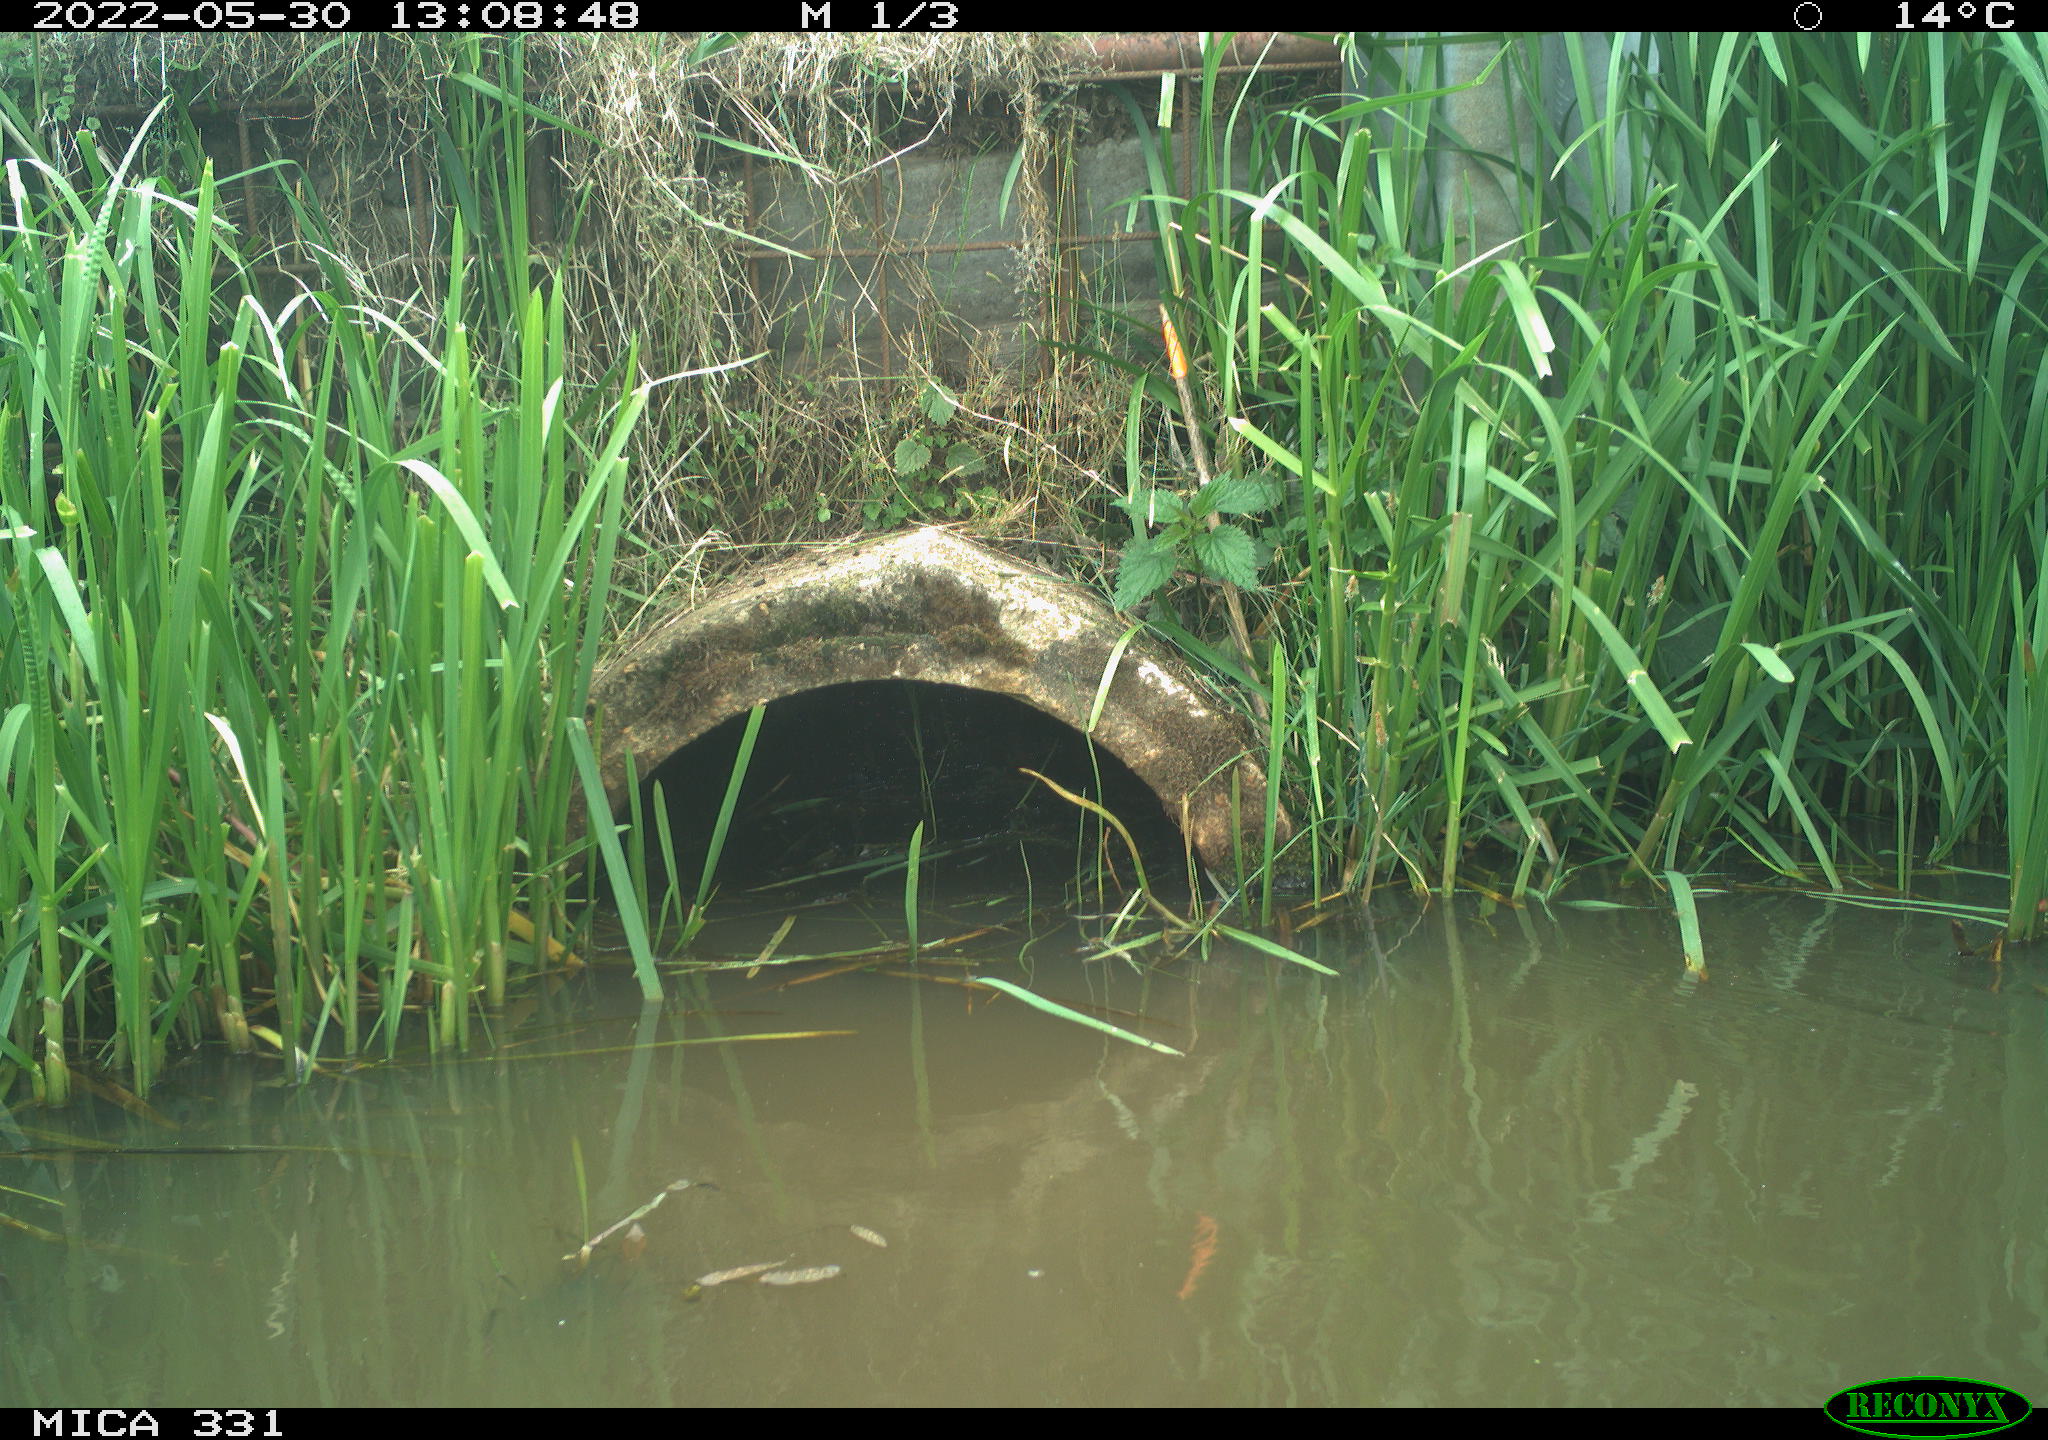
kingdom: Animalia
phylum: Chordata
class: Aves
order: Gruiformes
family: Rallidae
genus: Fulica
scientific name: Fulica atra
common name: Eurasian coot
